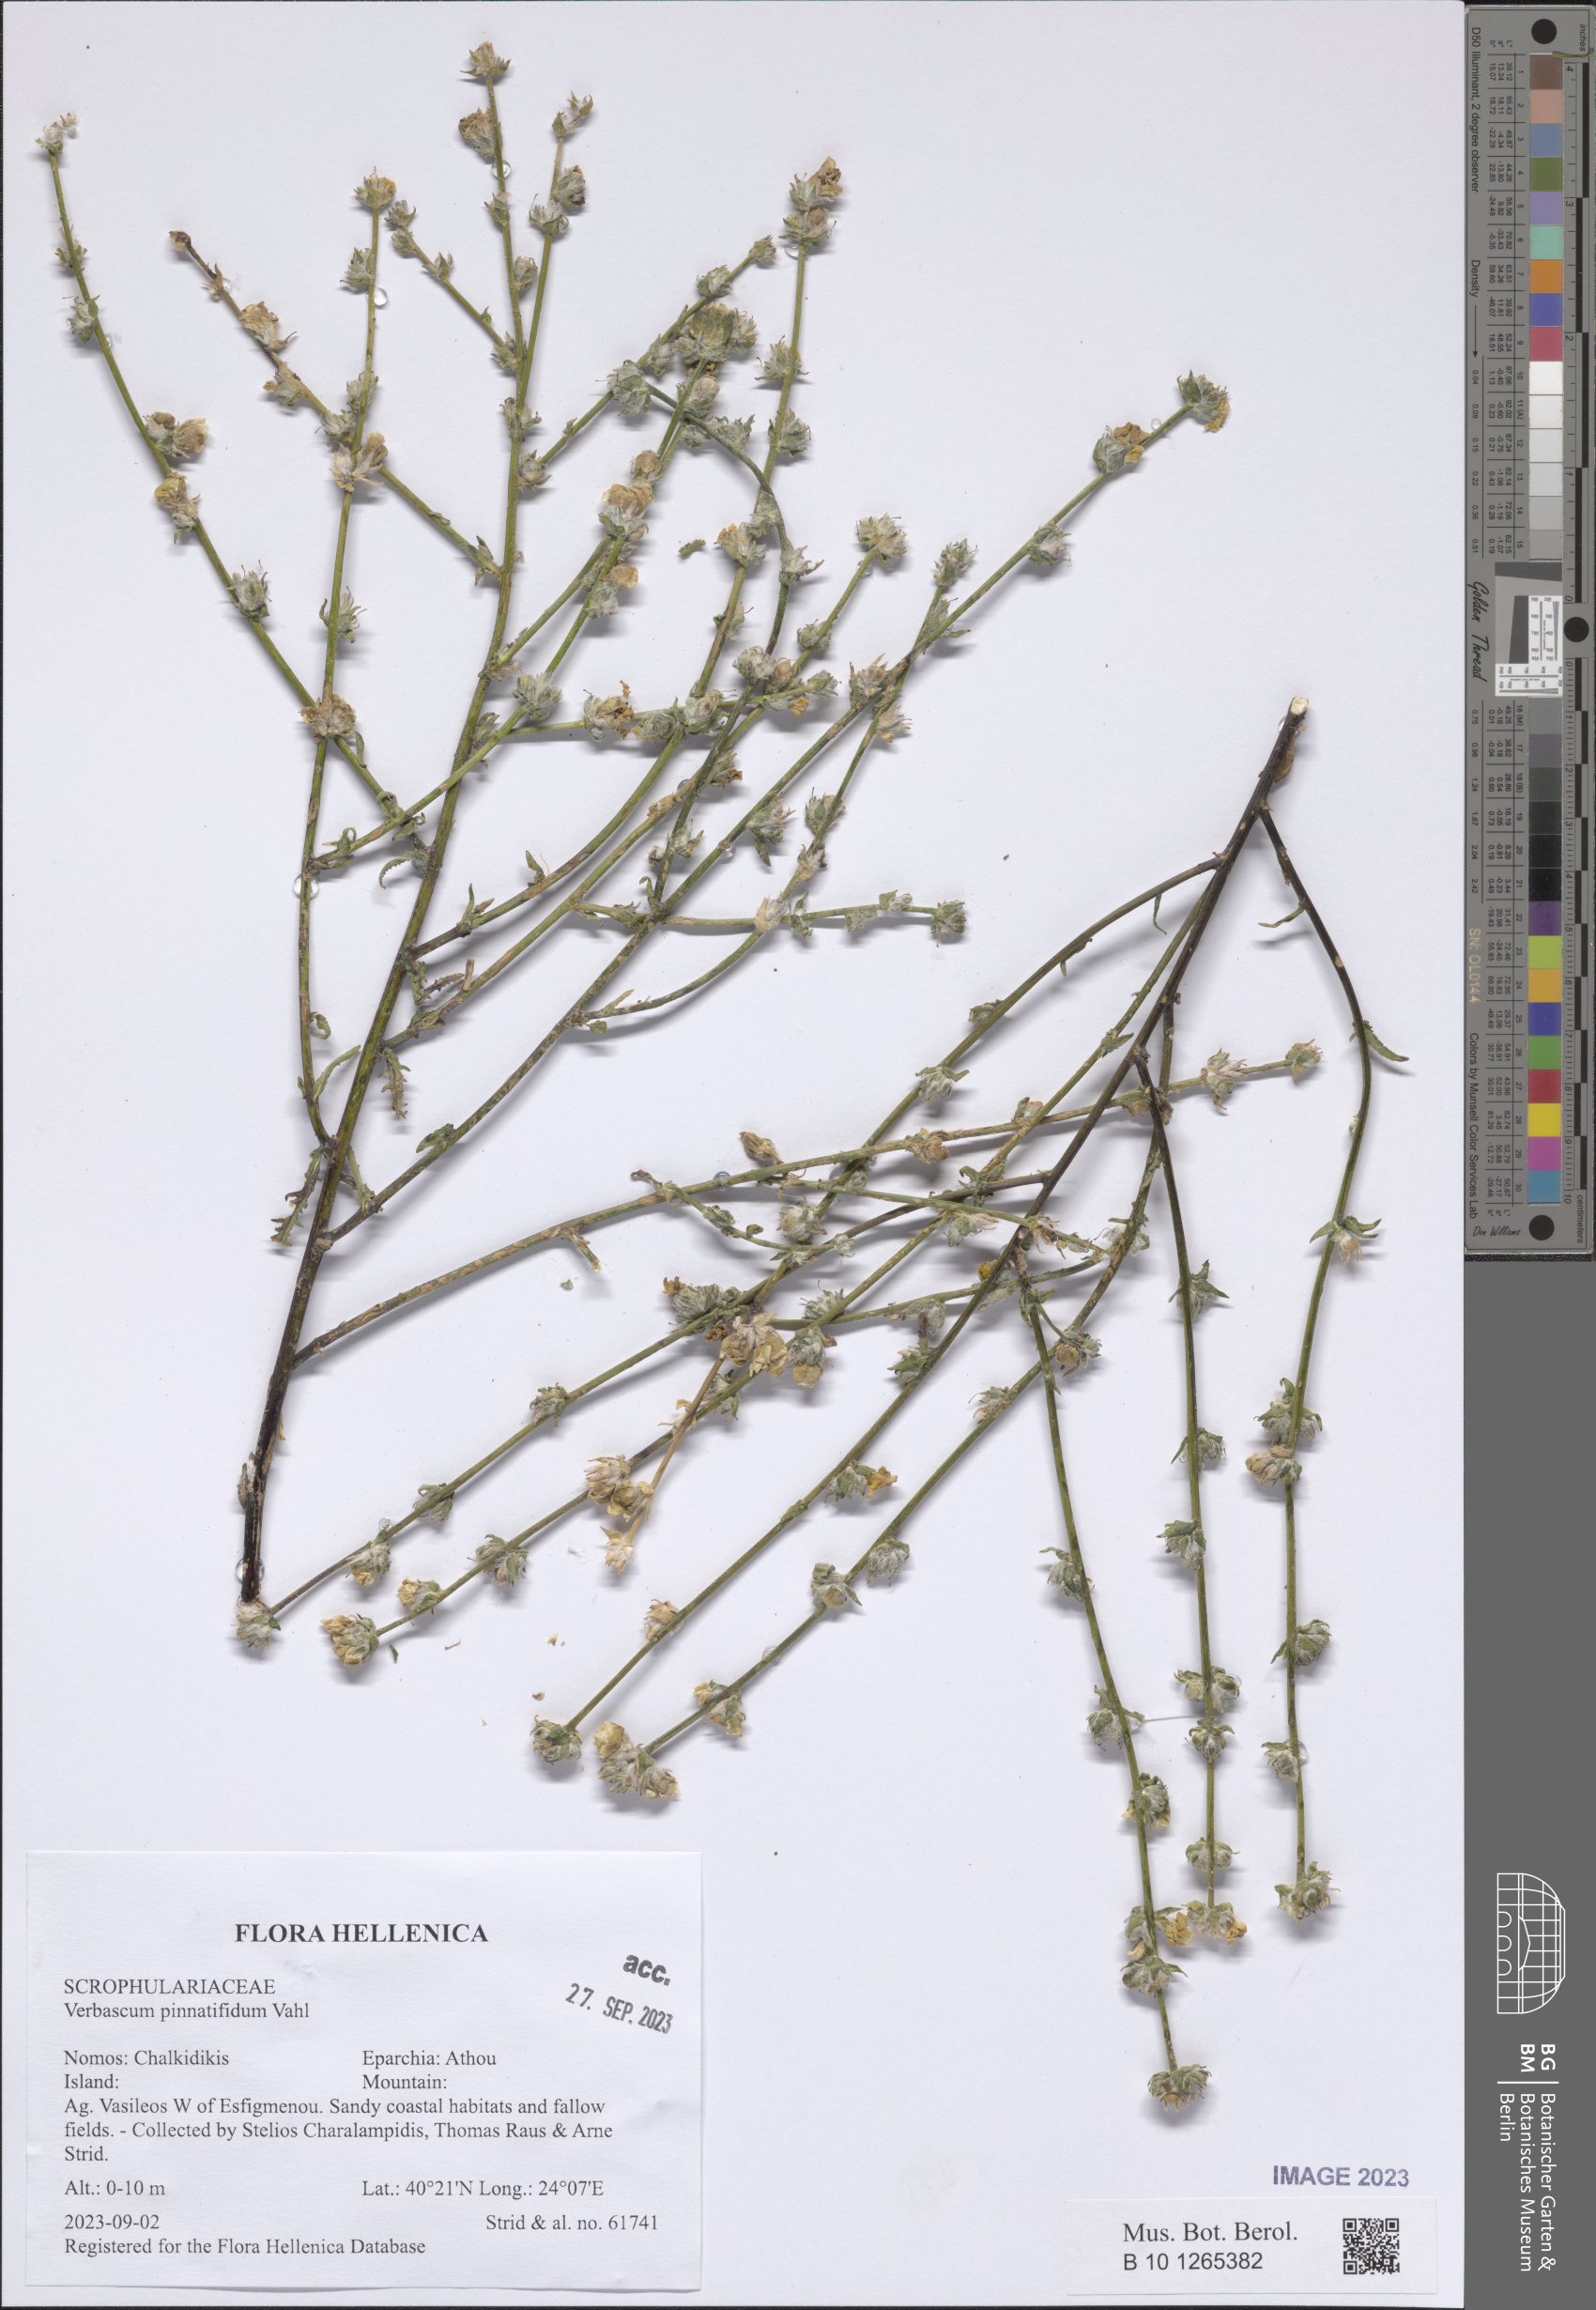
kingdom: Plantae
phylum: Tracheophyta
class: Magnoliopsida
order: Lamiales
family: Scrophulariaceae
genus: Verbascum
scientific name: Verbascum pinnatifidum
